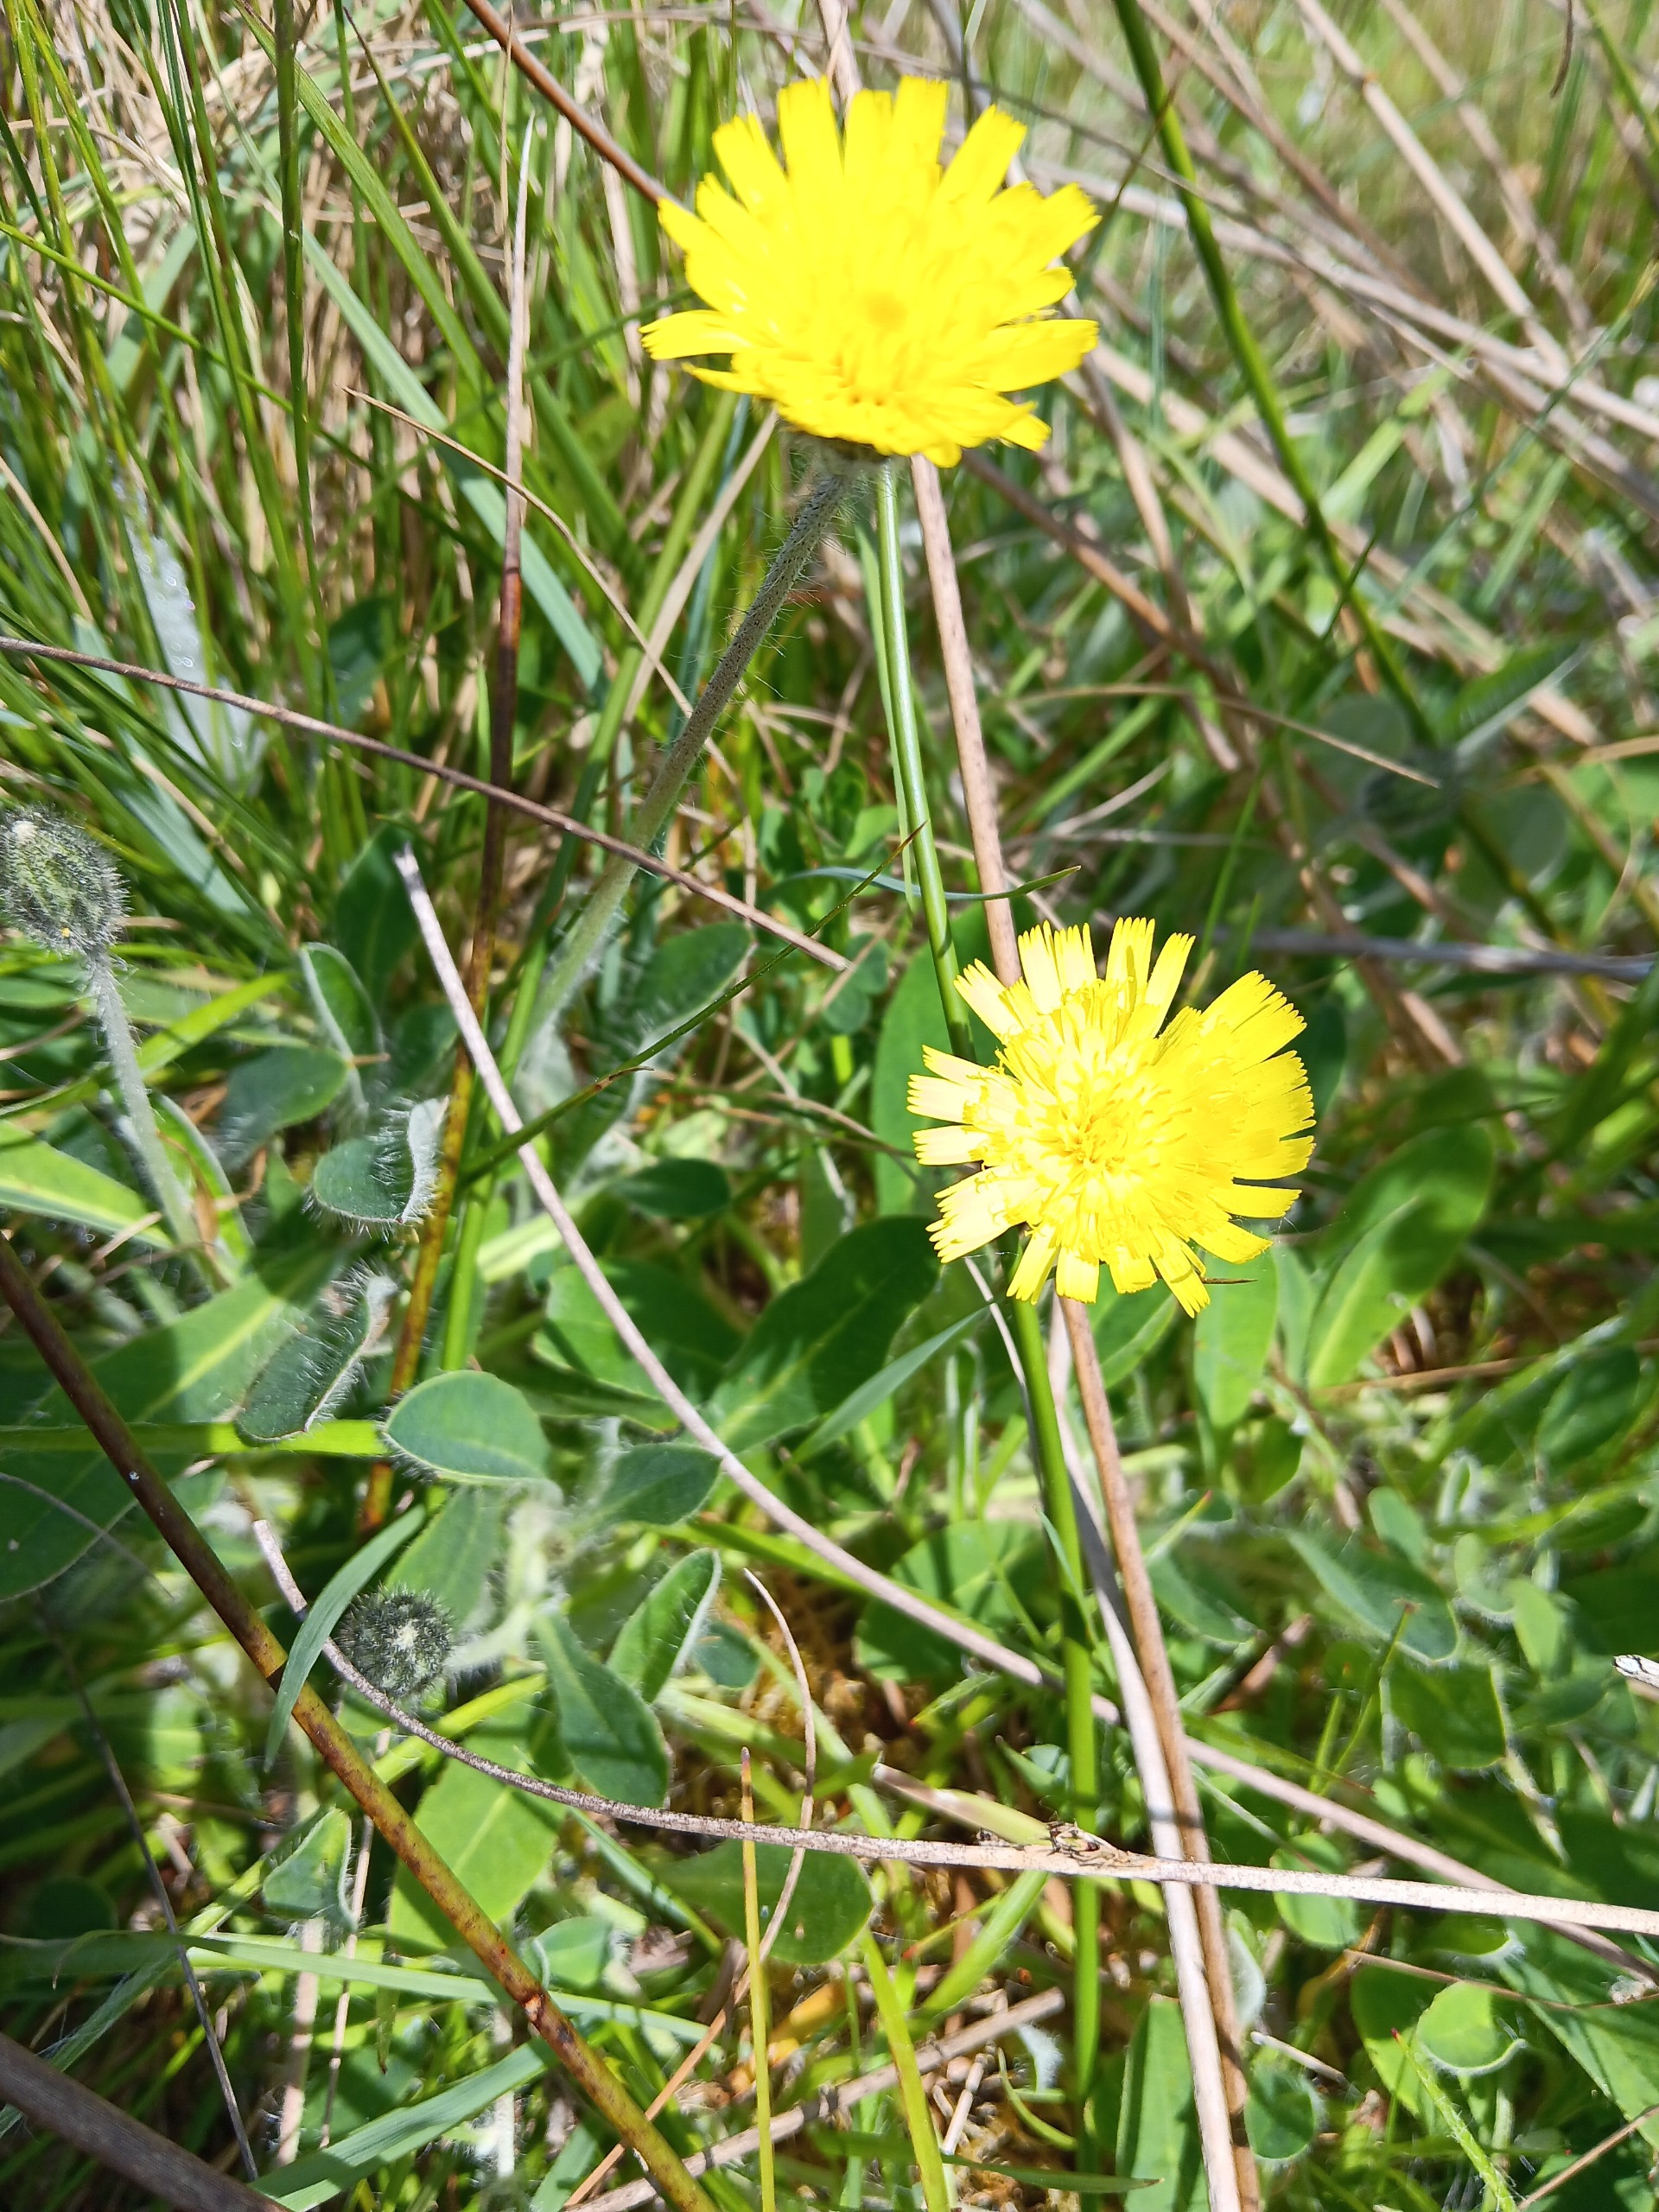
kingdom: Plantae
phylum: Tracheophyta
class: Magnoliopsida
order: Asterales
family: Asteraceae
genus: Pilosella
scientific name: Pilosella officinarum
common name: Håret høgeurt
